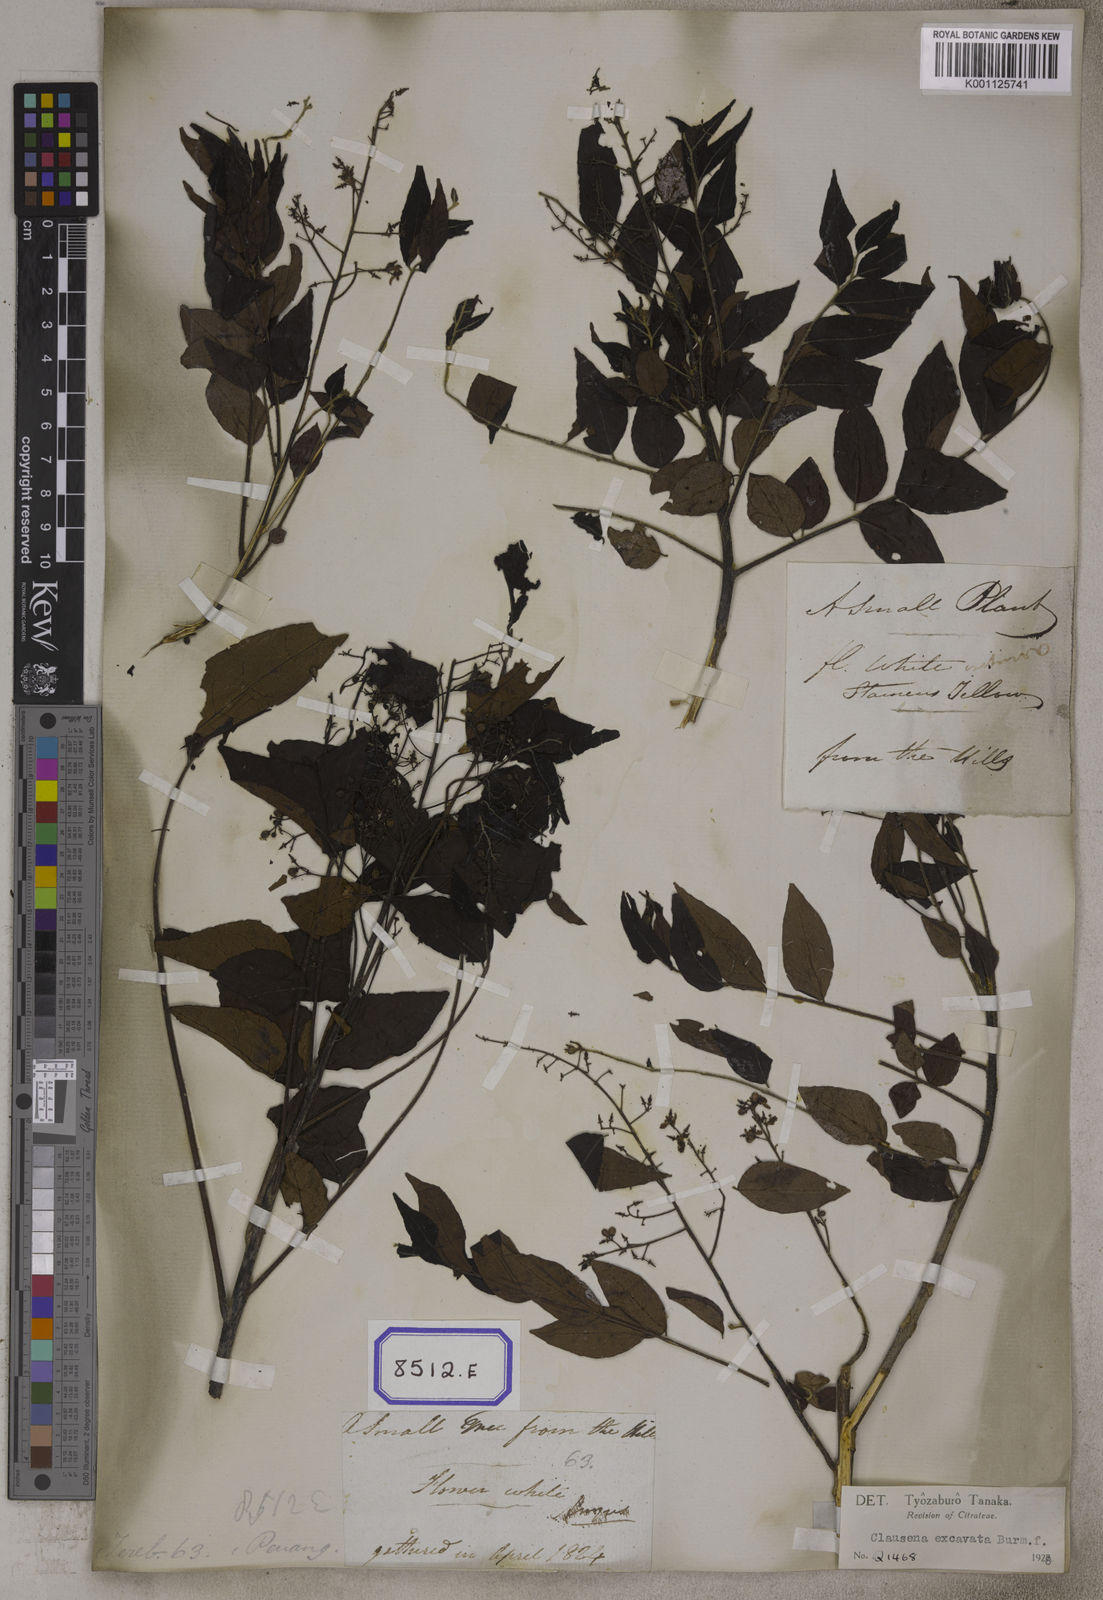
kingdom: Plantae
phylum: Tracheophyta
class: Magnoliopsida
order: Sapindales
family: Rutaceae
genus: Clausena
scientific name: Clausena
